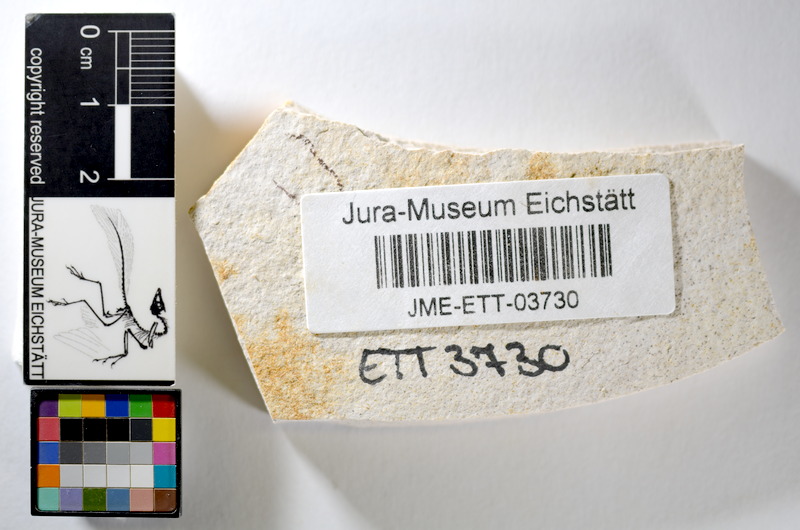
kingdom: Animalia
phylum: Chordata
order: Salmoniformes
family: Orthogonikleithridae
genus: Orthogonikleithrus
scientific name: Orthogonikleithrus hoelli
